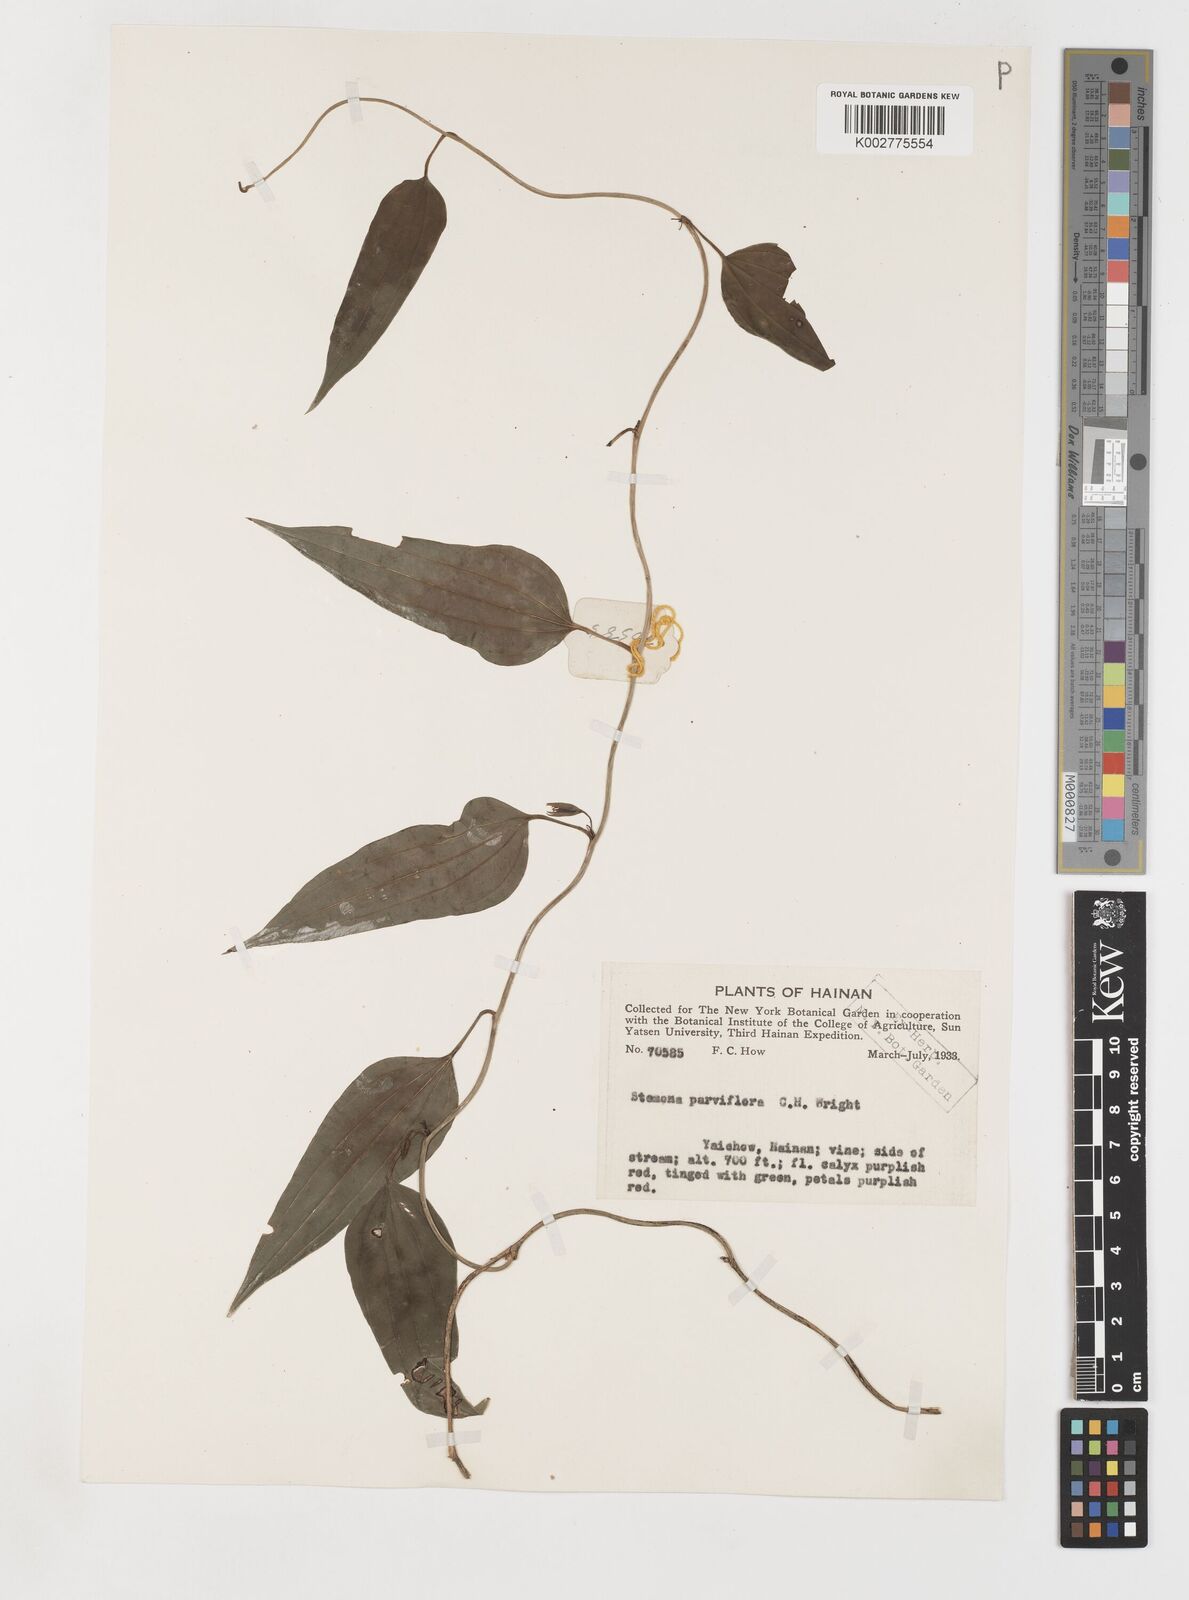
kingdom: Plantae
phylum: Tracheophyta
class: Liliopsida
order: Pandanales
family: Stemonaceae
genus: Stemona
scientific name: Stemona parviflora
